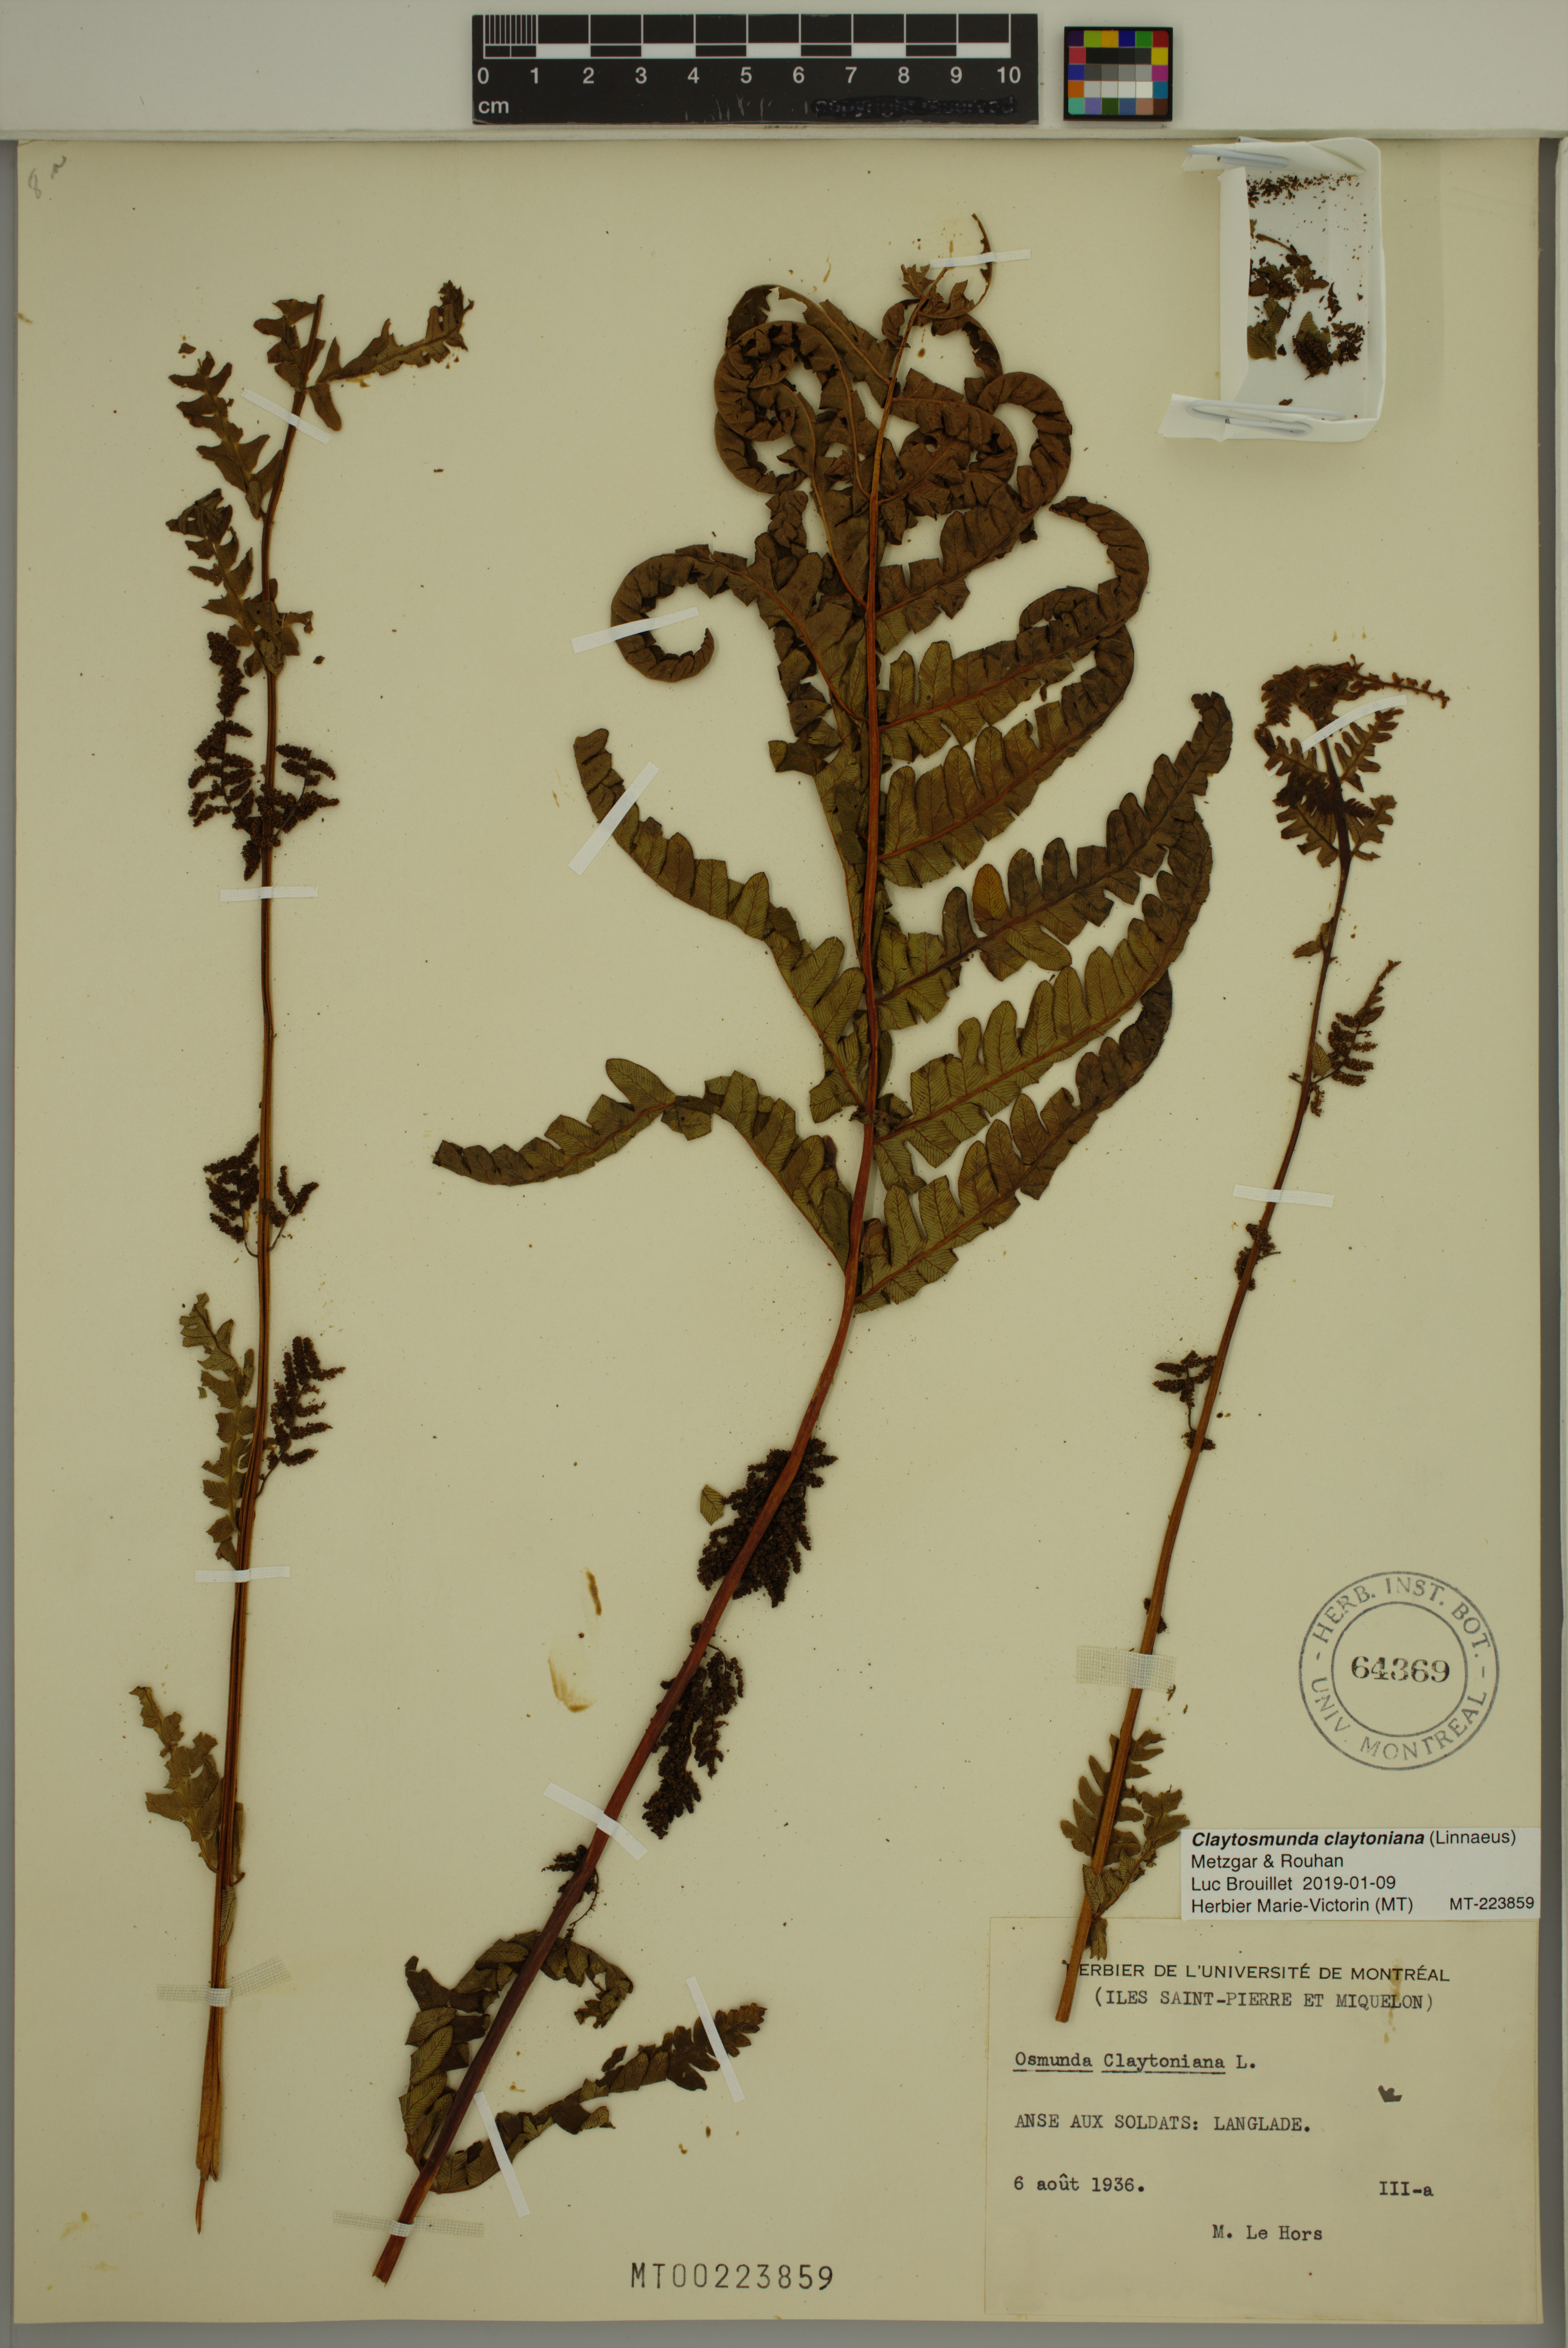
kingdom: Plantae
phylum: Tracheophyta
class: Polypodiopsida
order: Osmundales
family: Osmundaceae
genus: Claytosmunda
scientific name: Claytosmunda claytoniana
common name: Clayton's fern
